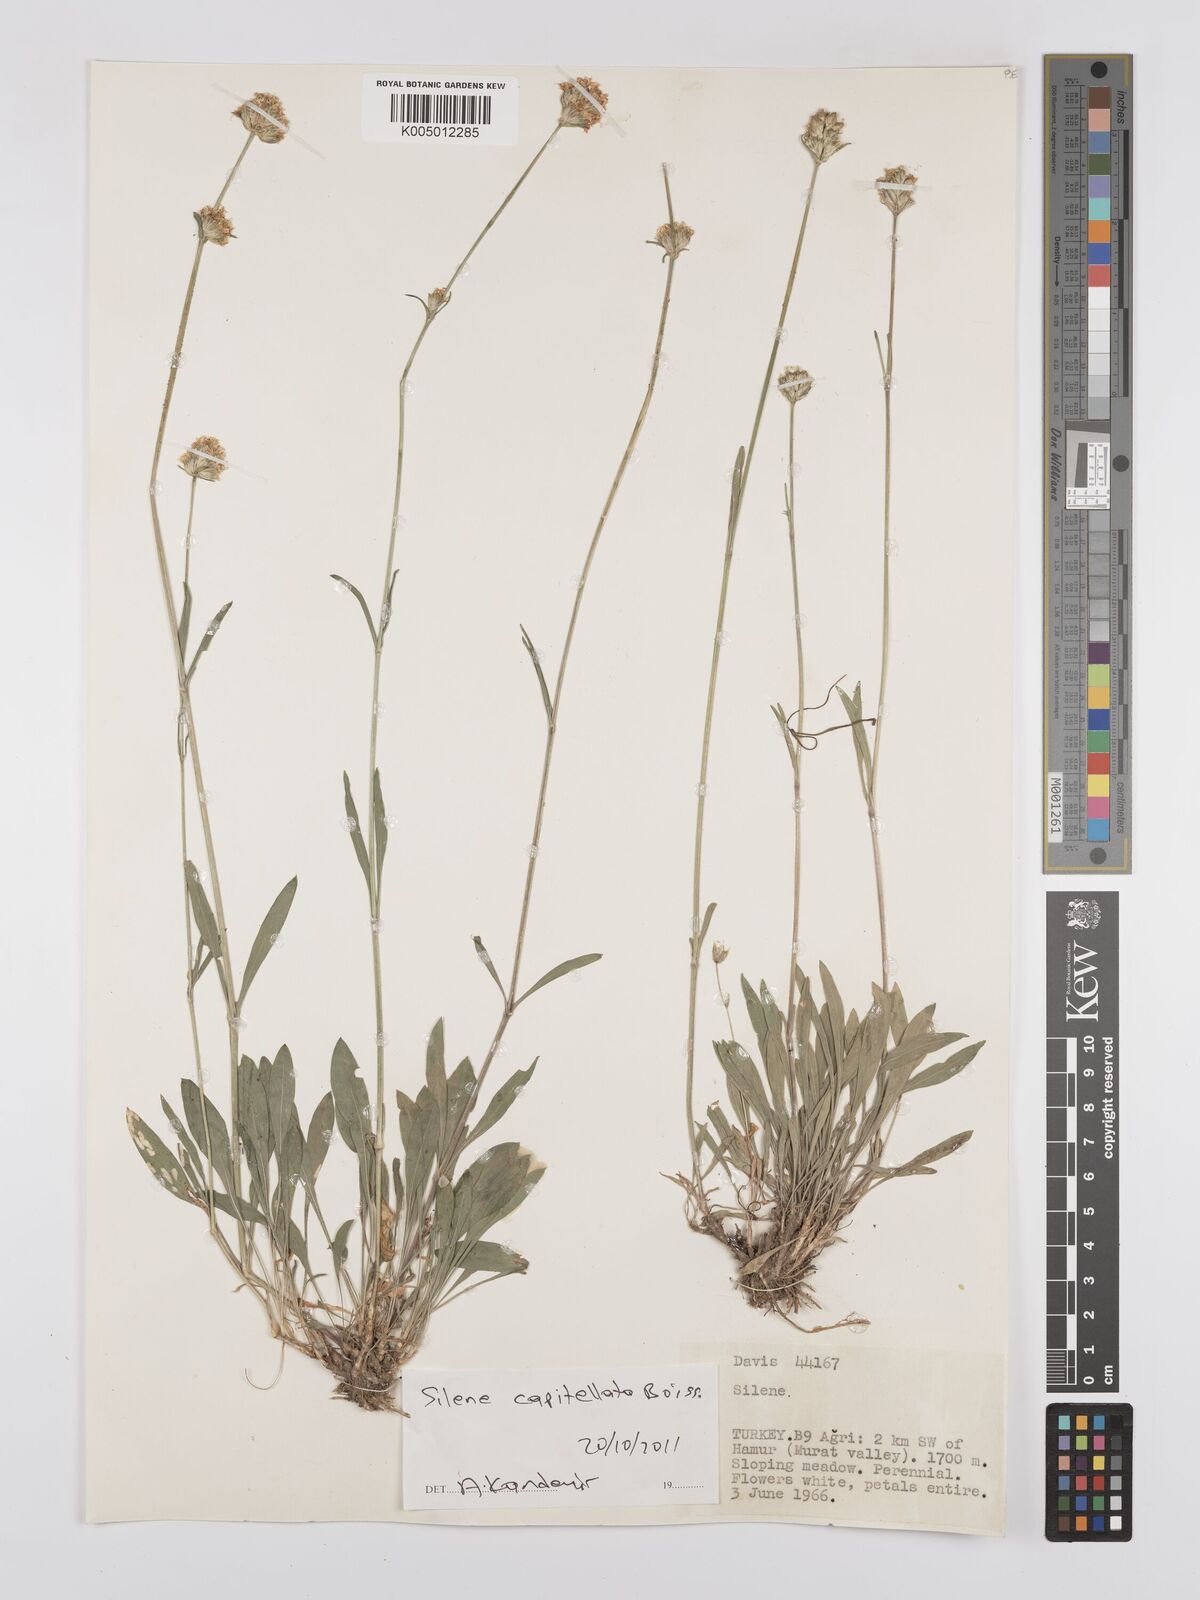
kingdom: Plantae
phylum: Tracheophyta
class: Magnoliopsida
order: Caryophyllales
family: Caryophyllaceae
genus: Silene
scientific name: Silene capitellata
